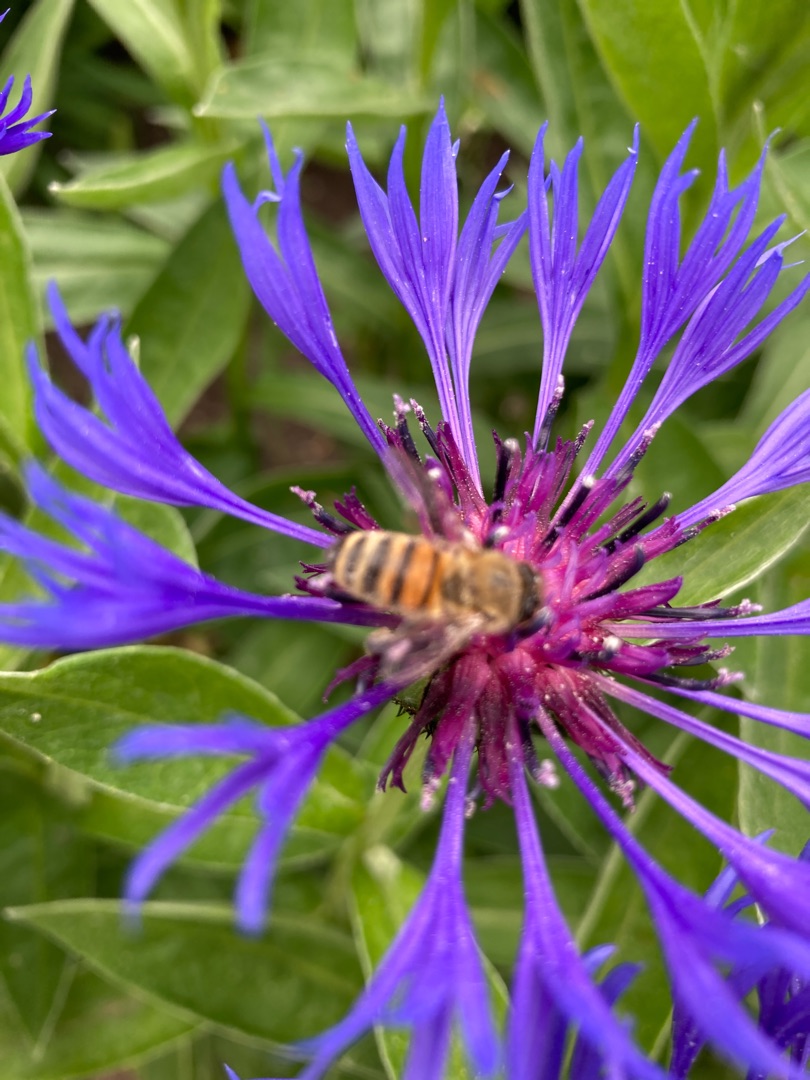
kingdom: Animalia
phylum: Arthropoda
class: Insecta
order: Hymenoptera
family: Apidae
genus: Apis
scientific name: Apis mellifera
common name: Honningbi
